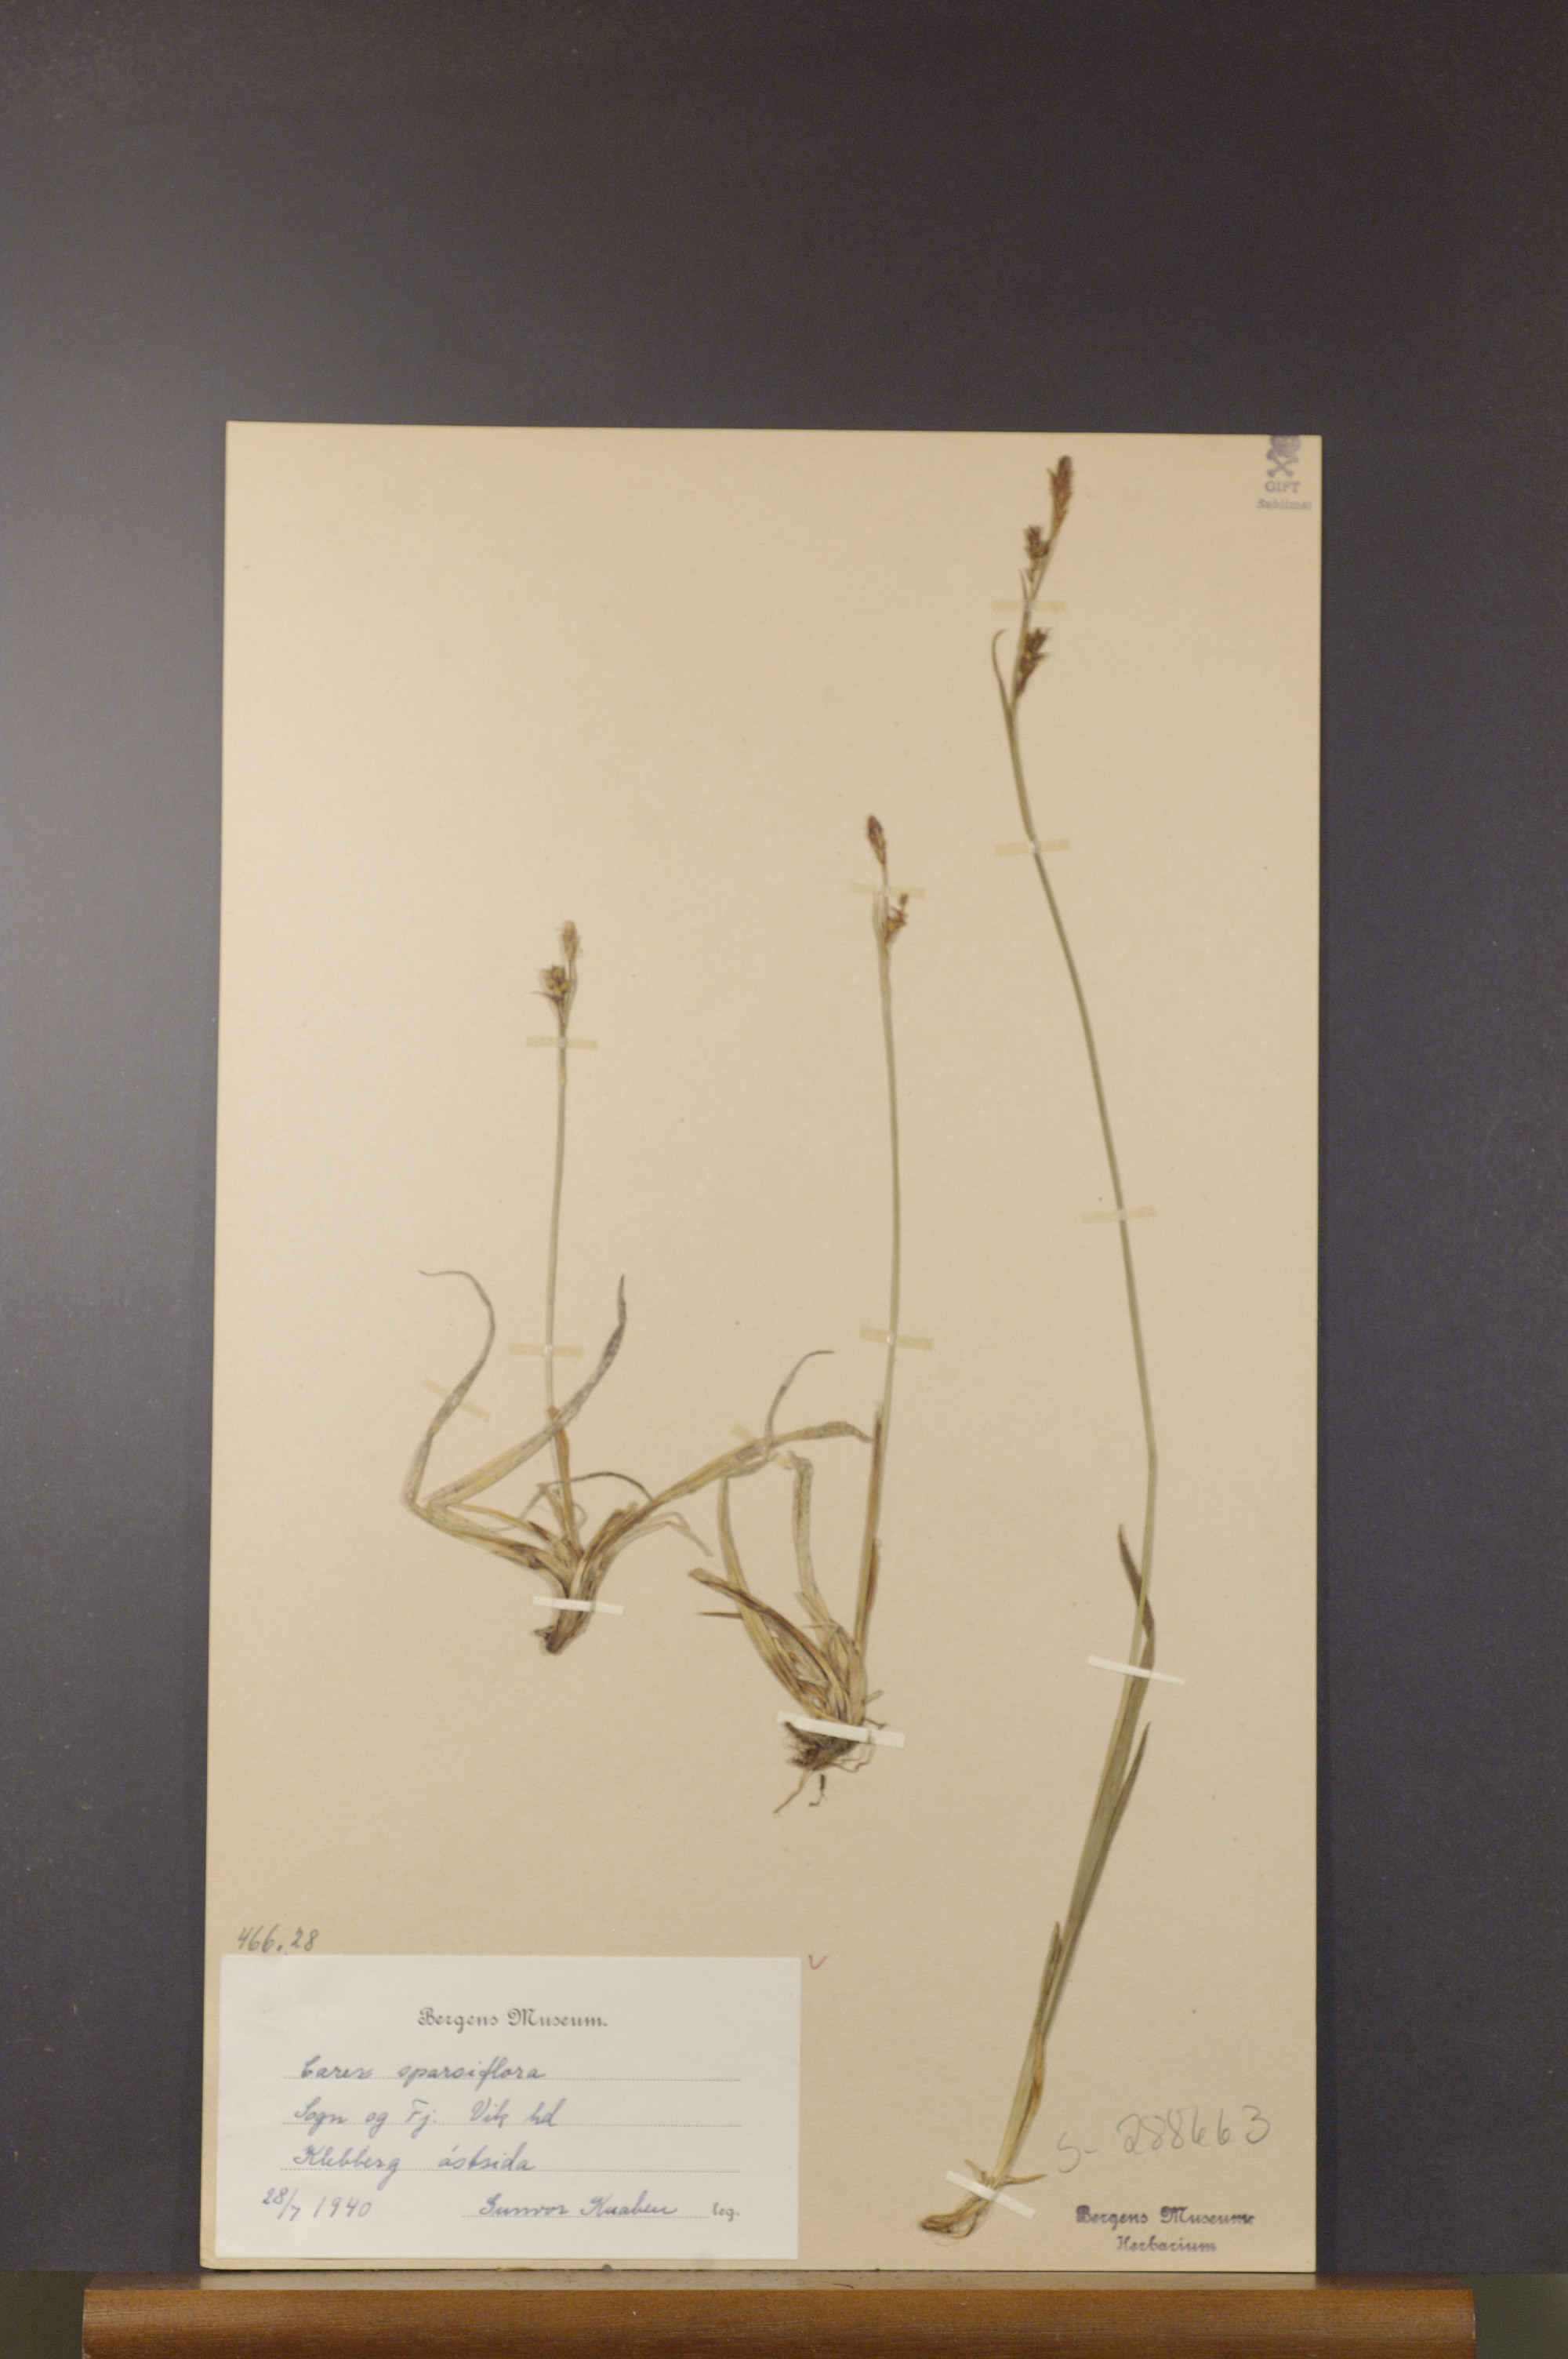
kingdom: Plantae
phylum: Tracheophyta
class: Liliopsida
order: Poales
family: Cyperaceae
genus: Carex
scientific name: Carex vaginata
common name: Sheathed sedge
